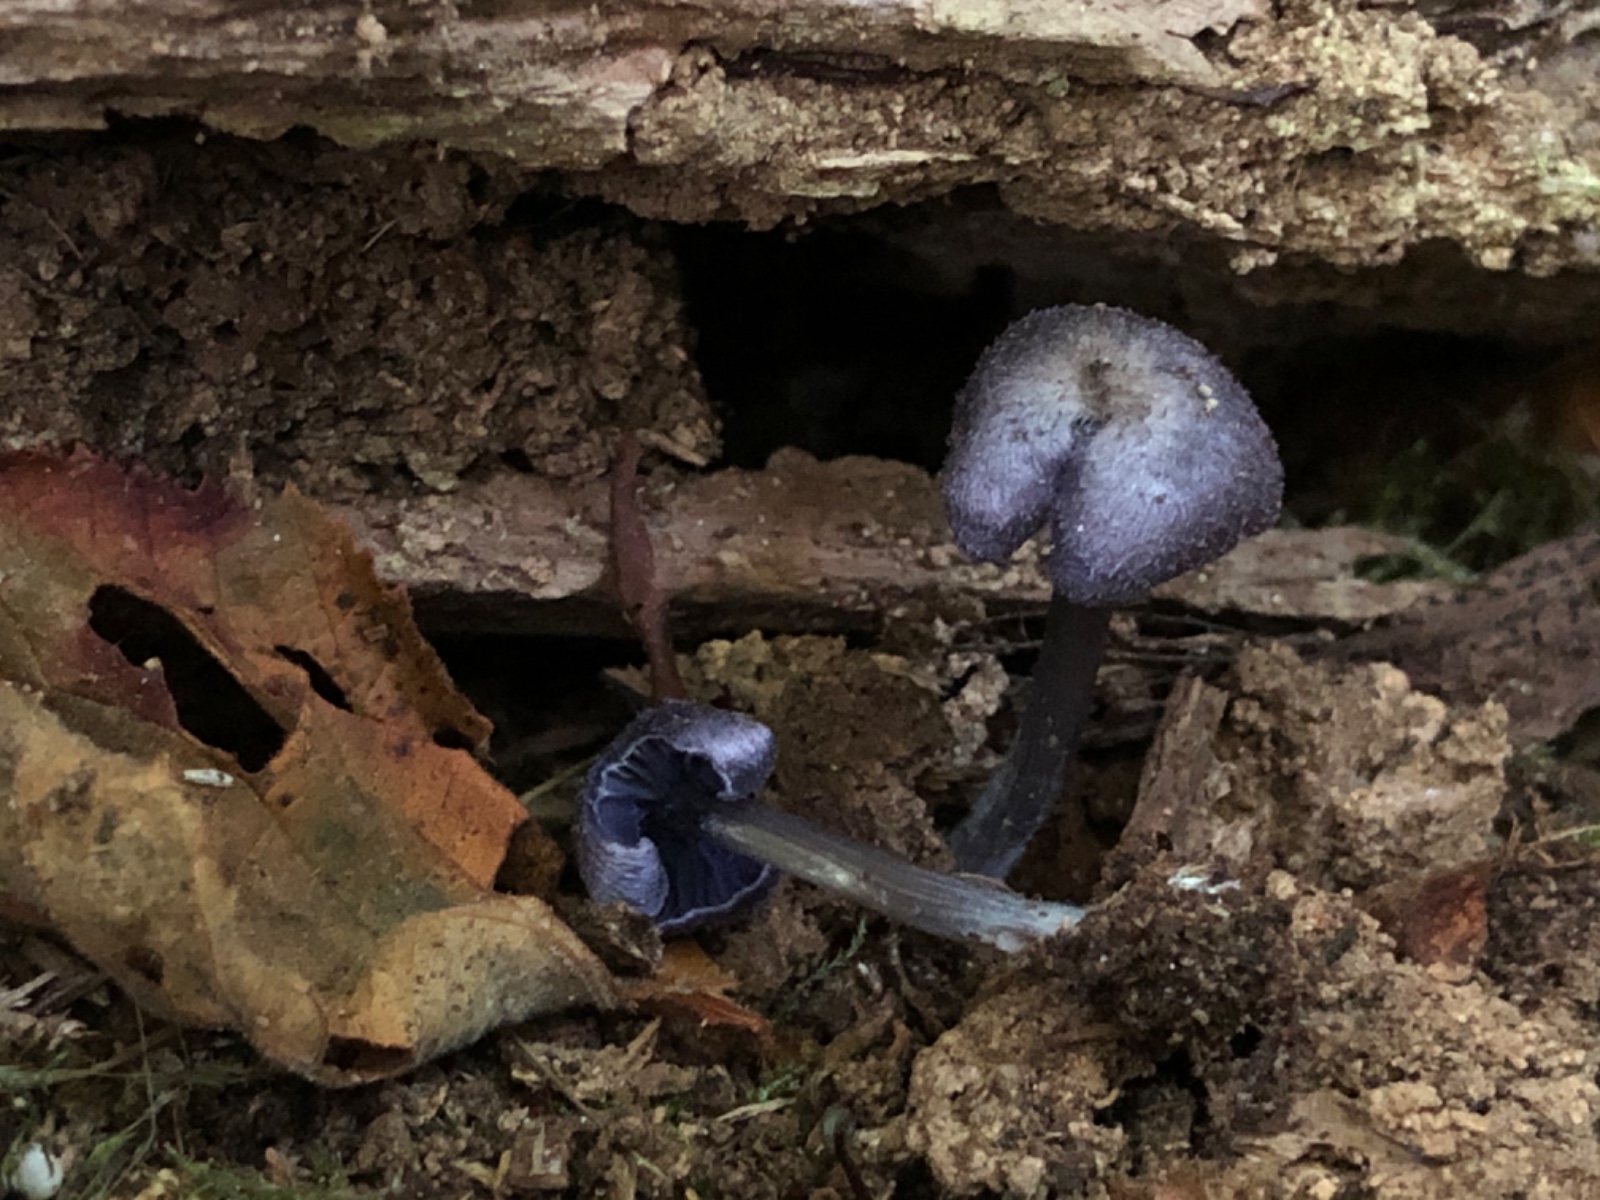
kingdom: Fungi
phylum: Basidiomycota
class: Agaricomycetes
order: Agaricales
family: Entolomataceae
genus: Entoloma
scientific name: Entoloma euchroum
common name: smuk rødblad
